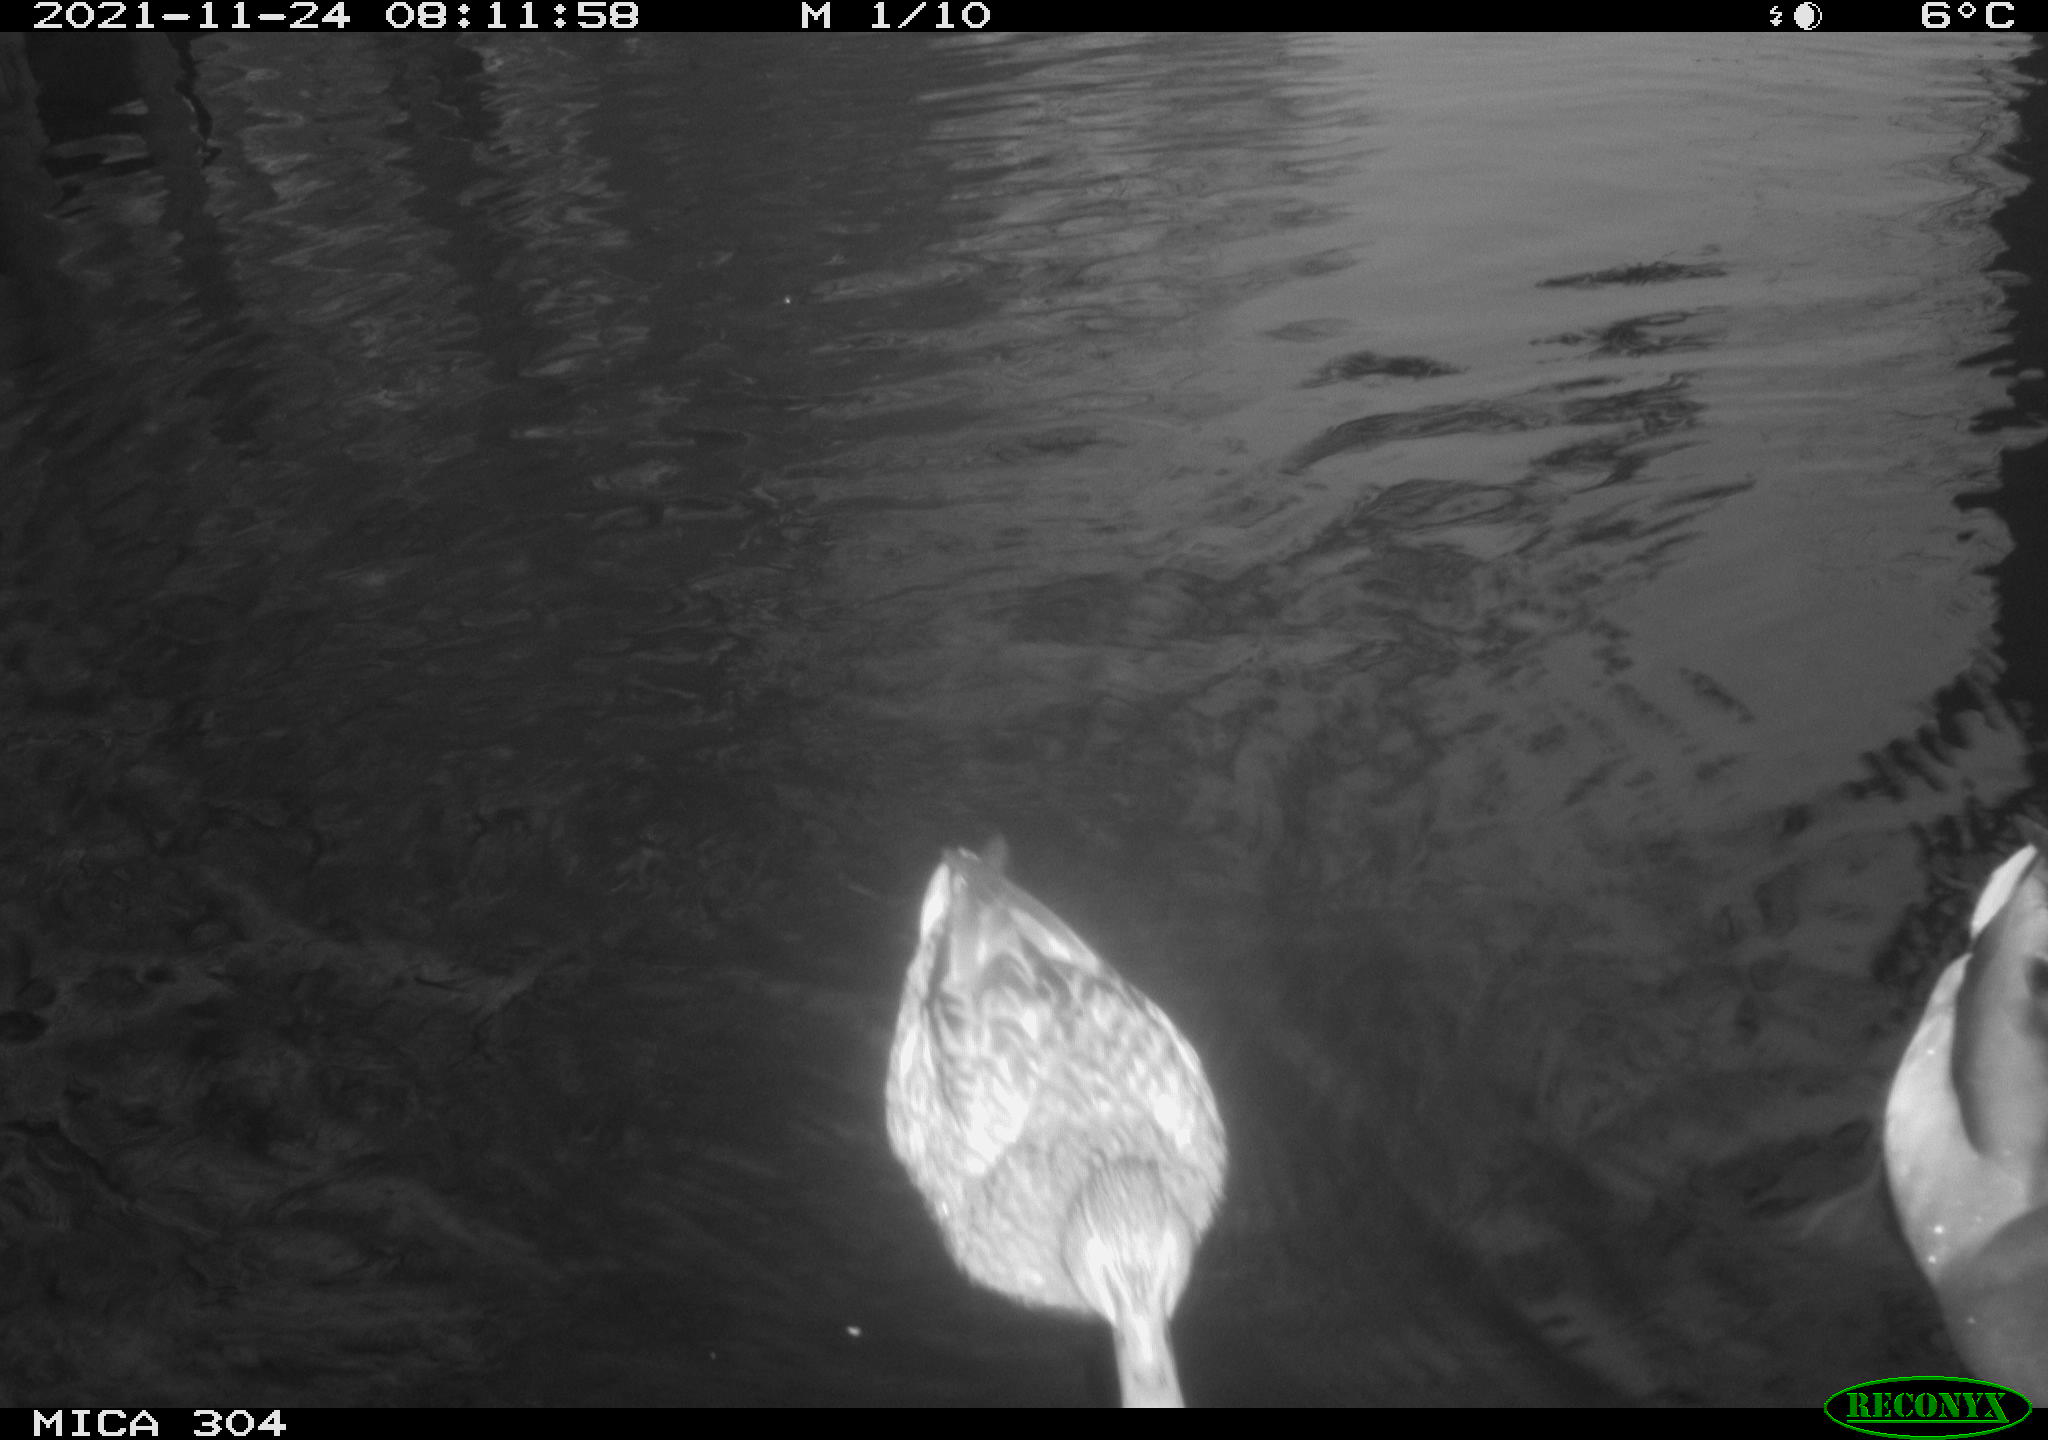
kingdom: Animalia
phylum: Chordata
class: Aves
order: Anseriformes
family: Anatidae
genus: Anas
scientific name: Anas platyrhynchos
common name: Mallard
